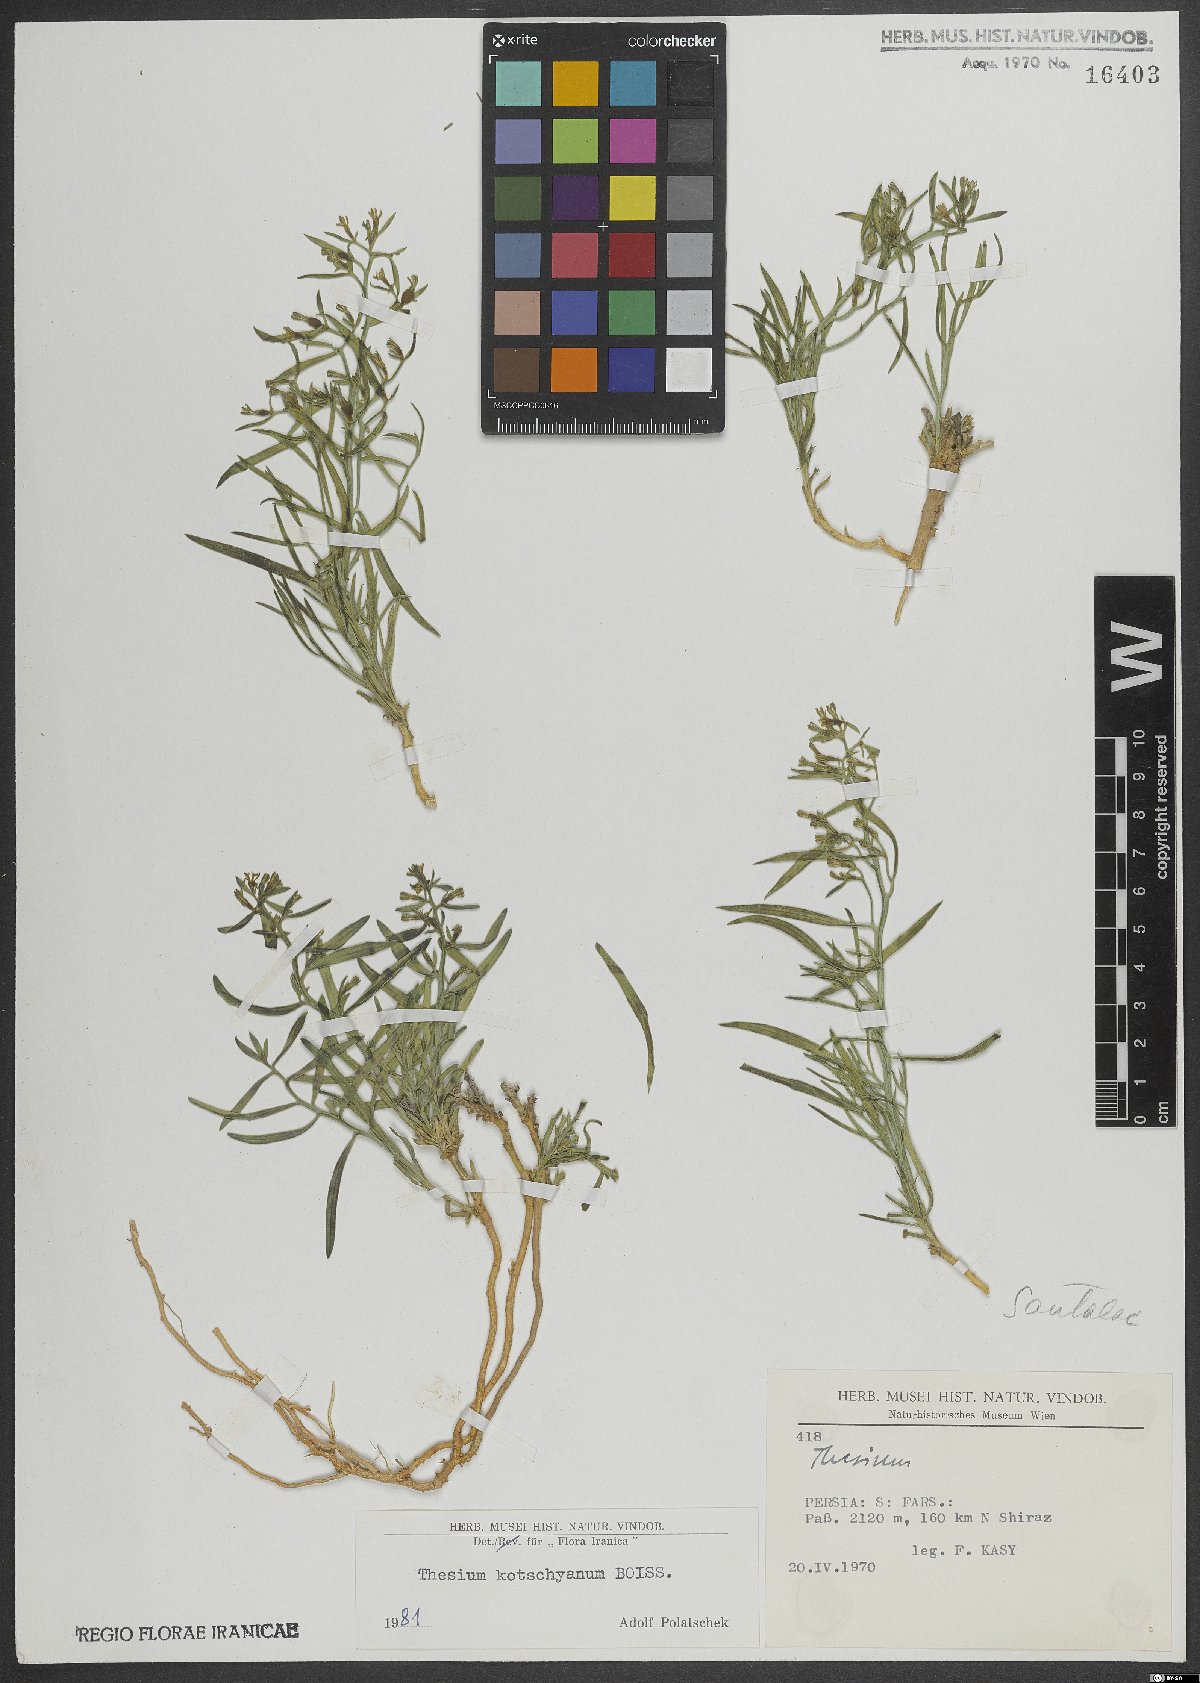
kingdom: Plantae
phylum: Tracheophyta
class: Magnoliopsida
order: Santalales
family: Thesiaceae
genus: Thesium
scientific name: Thesium kotschyanum
